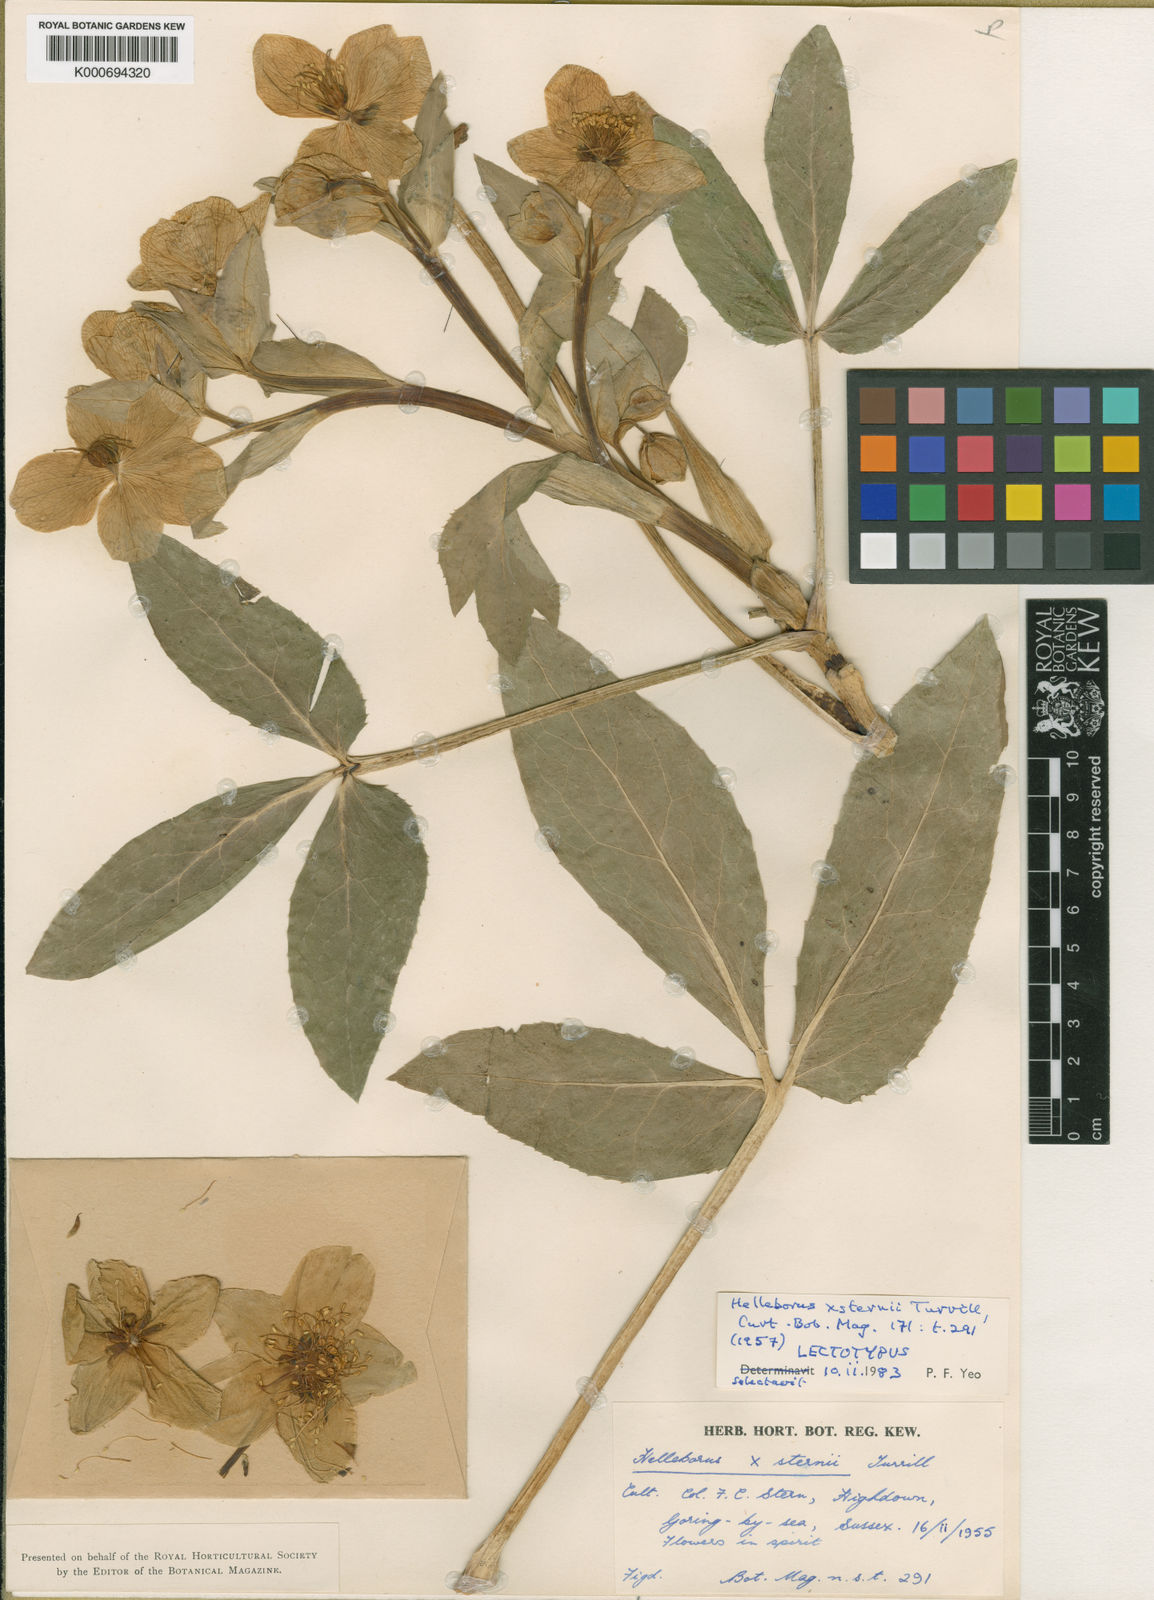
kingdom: Plantae
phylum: Tracheophyta
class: Magnoliopsida
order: Ranunculales
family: Ranunculaceae
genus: Helleborus
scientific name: Helleborus lividus
